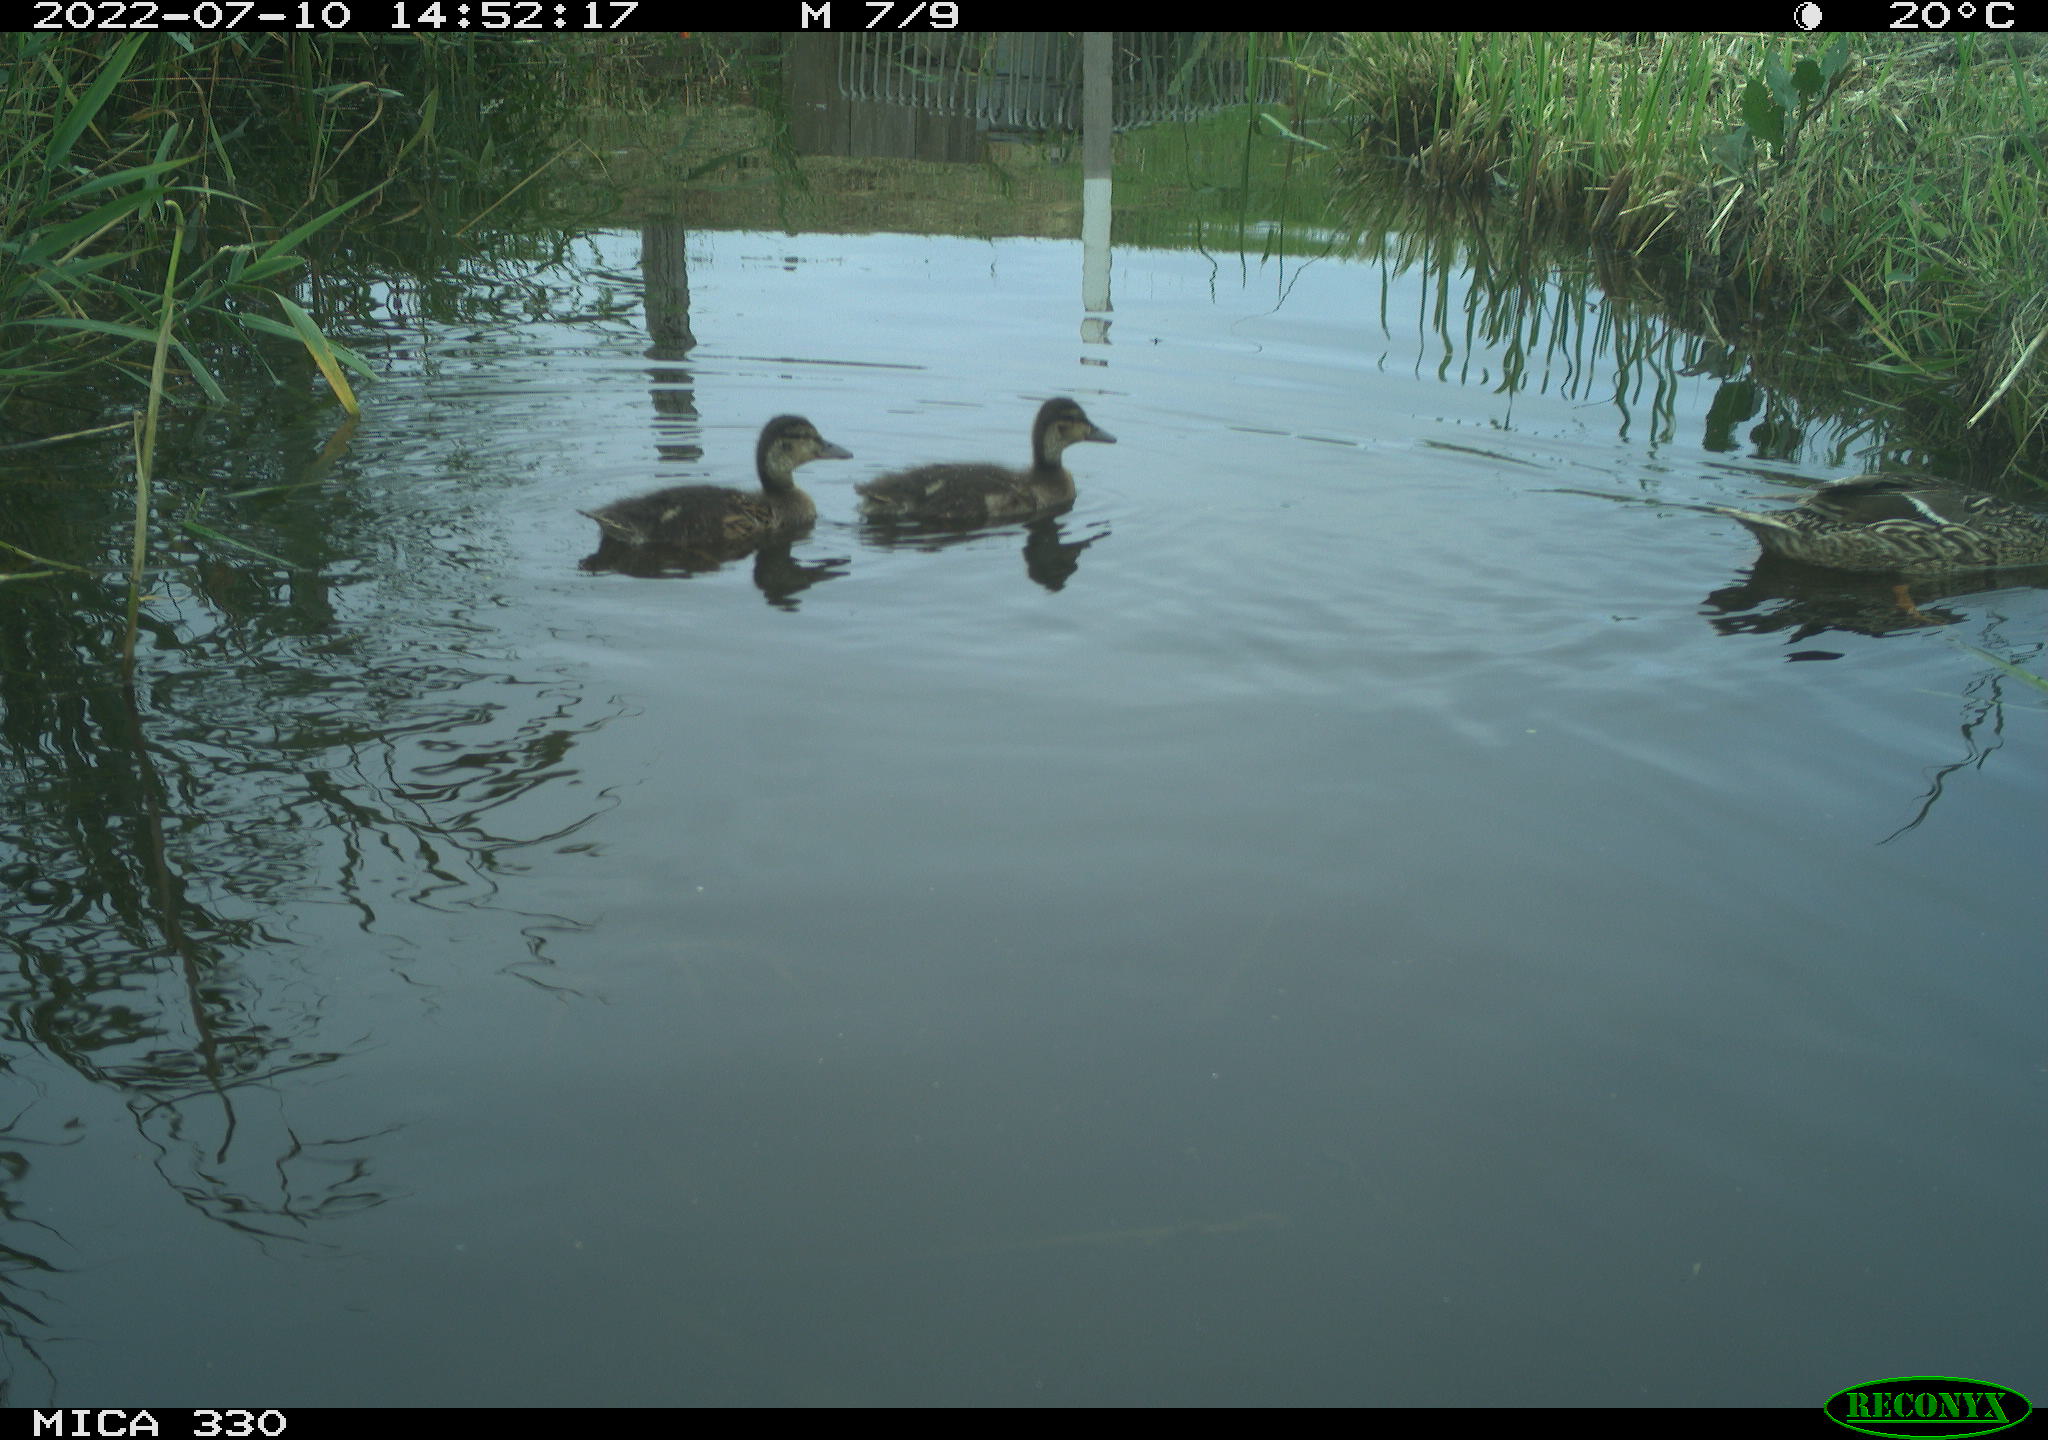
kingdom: Animalia
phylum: Chordata
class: Aves
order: Anseriformes
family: Anatidae
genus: Mareca
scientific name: Mareca strepera
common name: Gadwall
